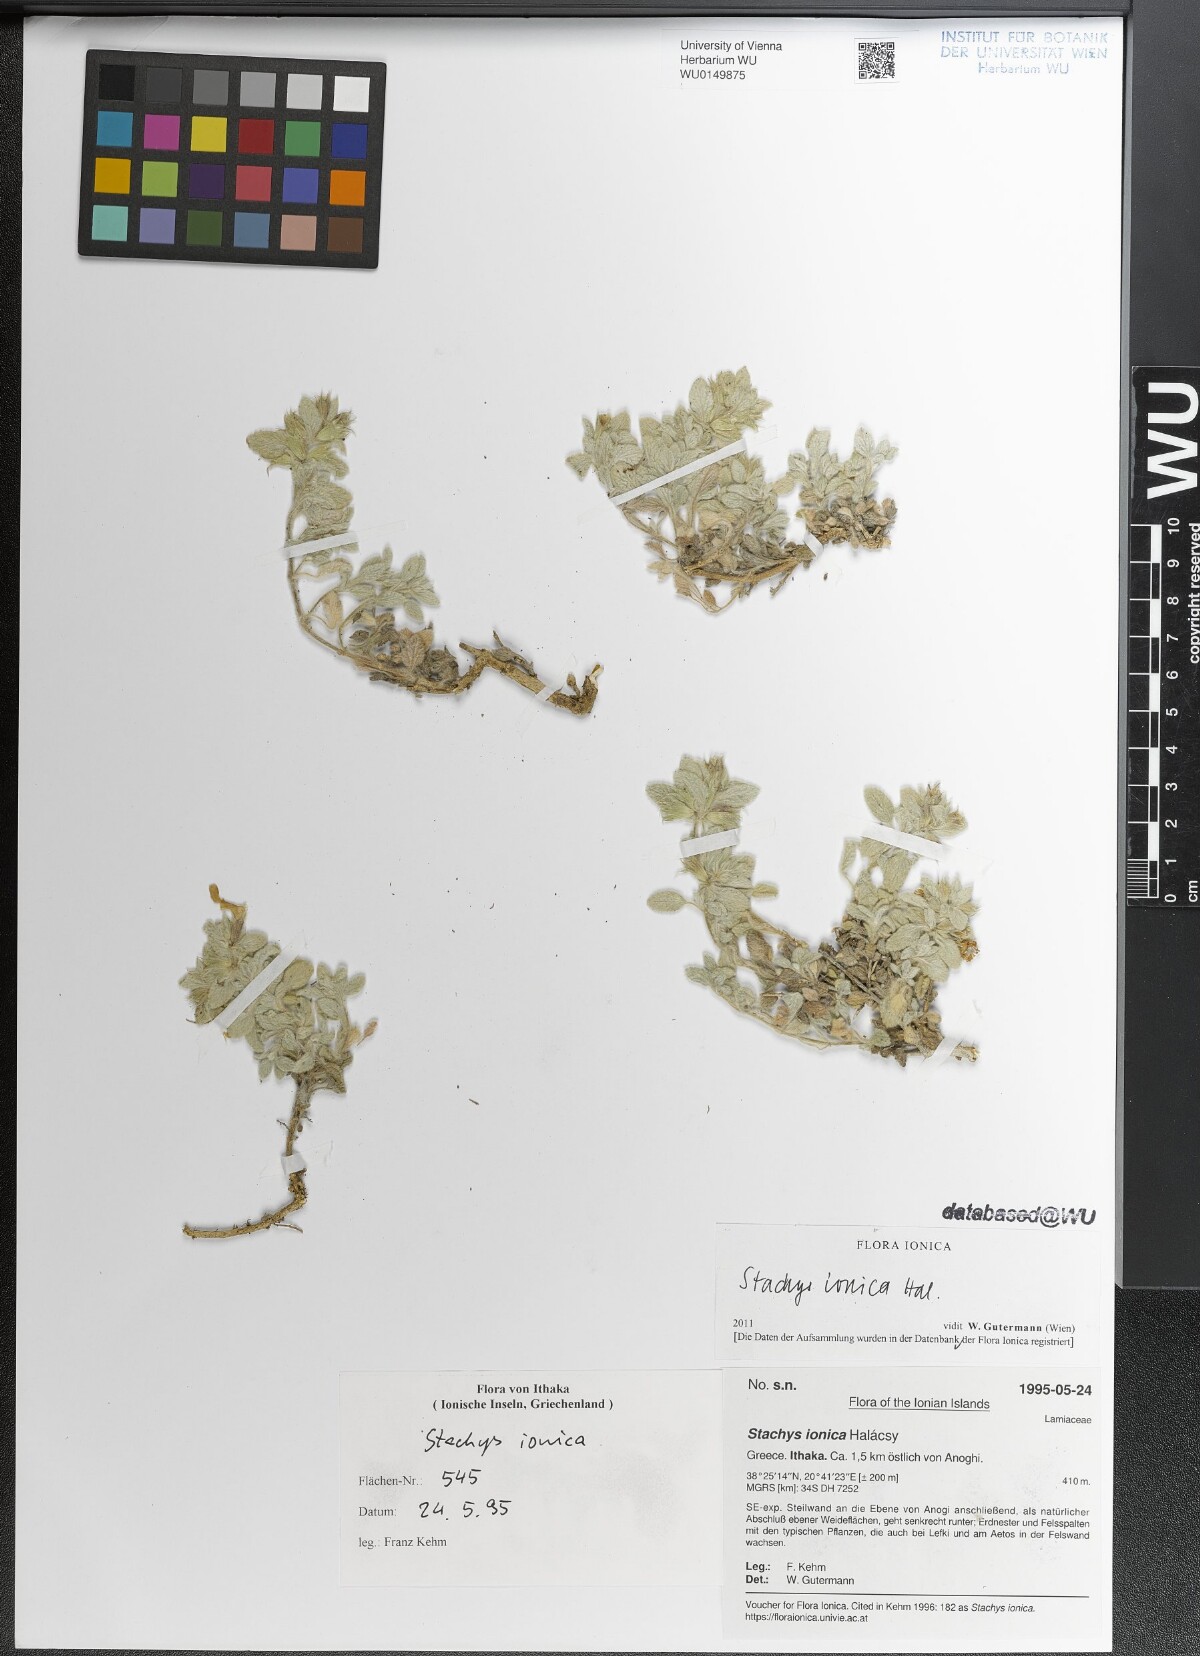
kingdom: Plantae
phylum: Tracheophyta
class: Magnoliopsida
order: Lamiales
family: Lamiaceae
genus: Stachys
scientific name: Stachys ionica
